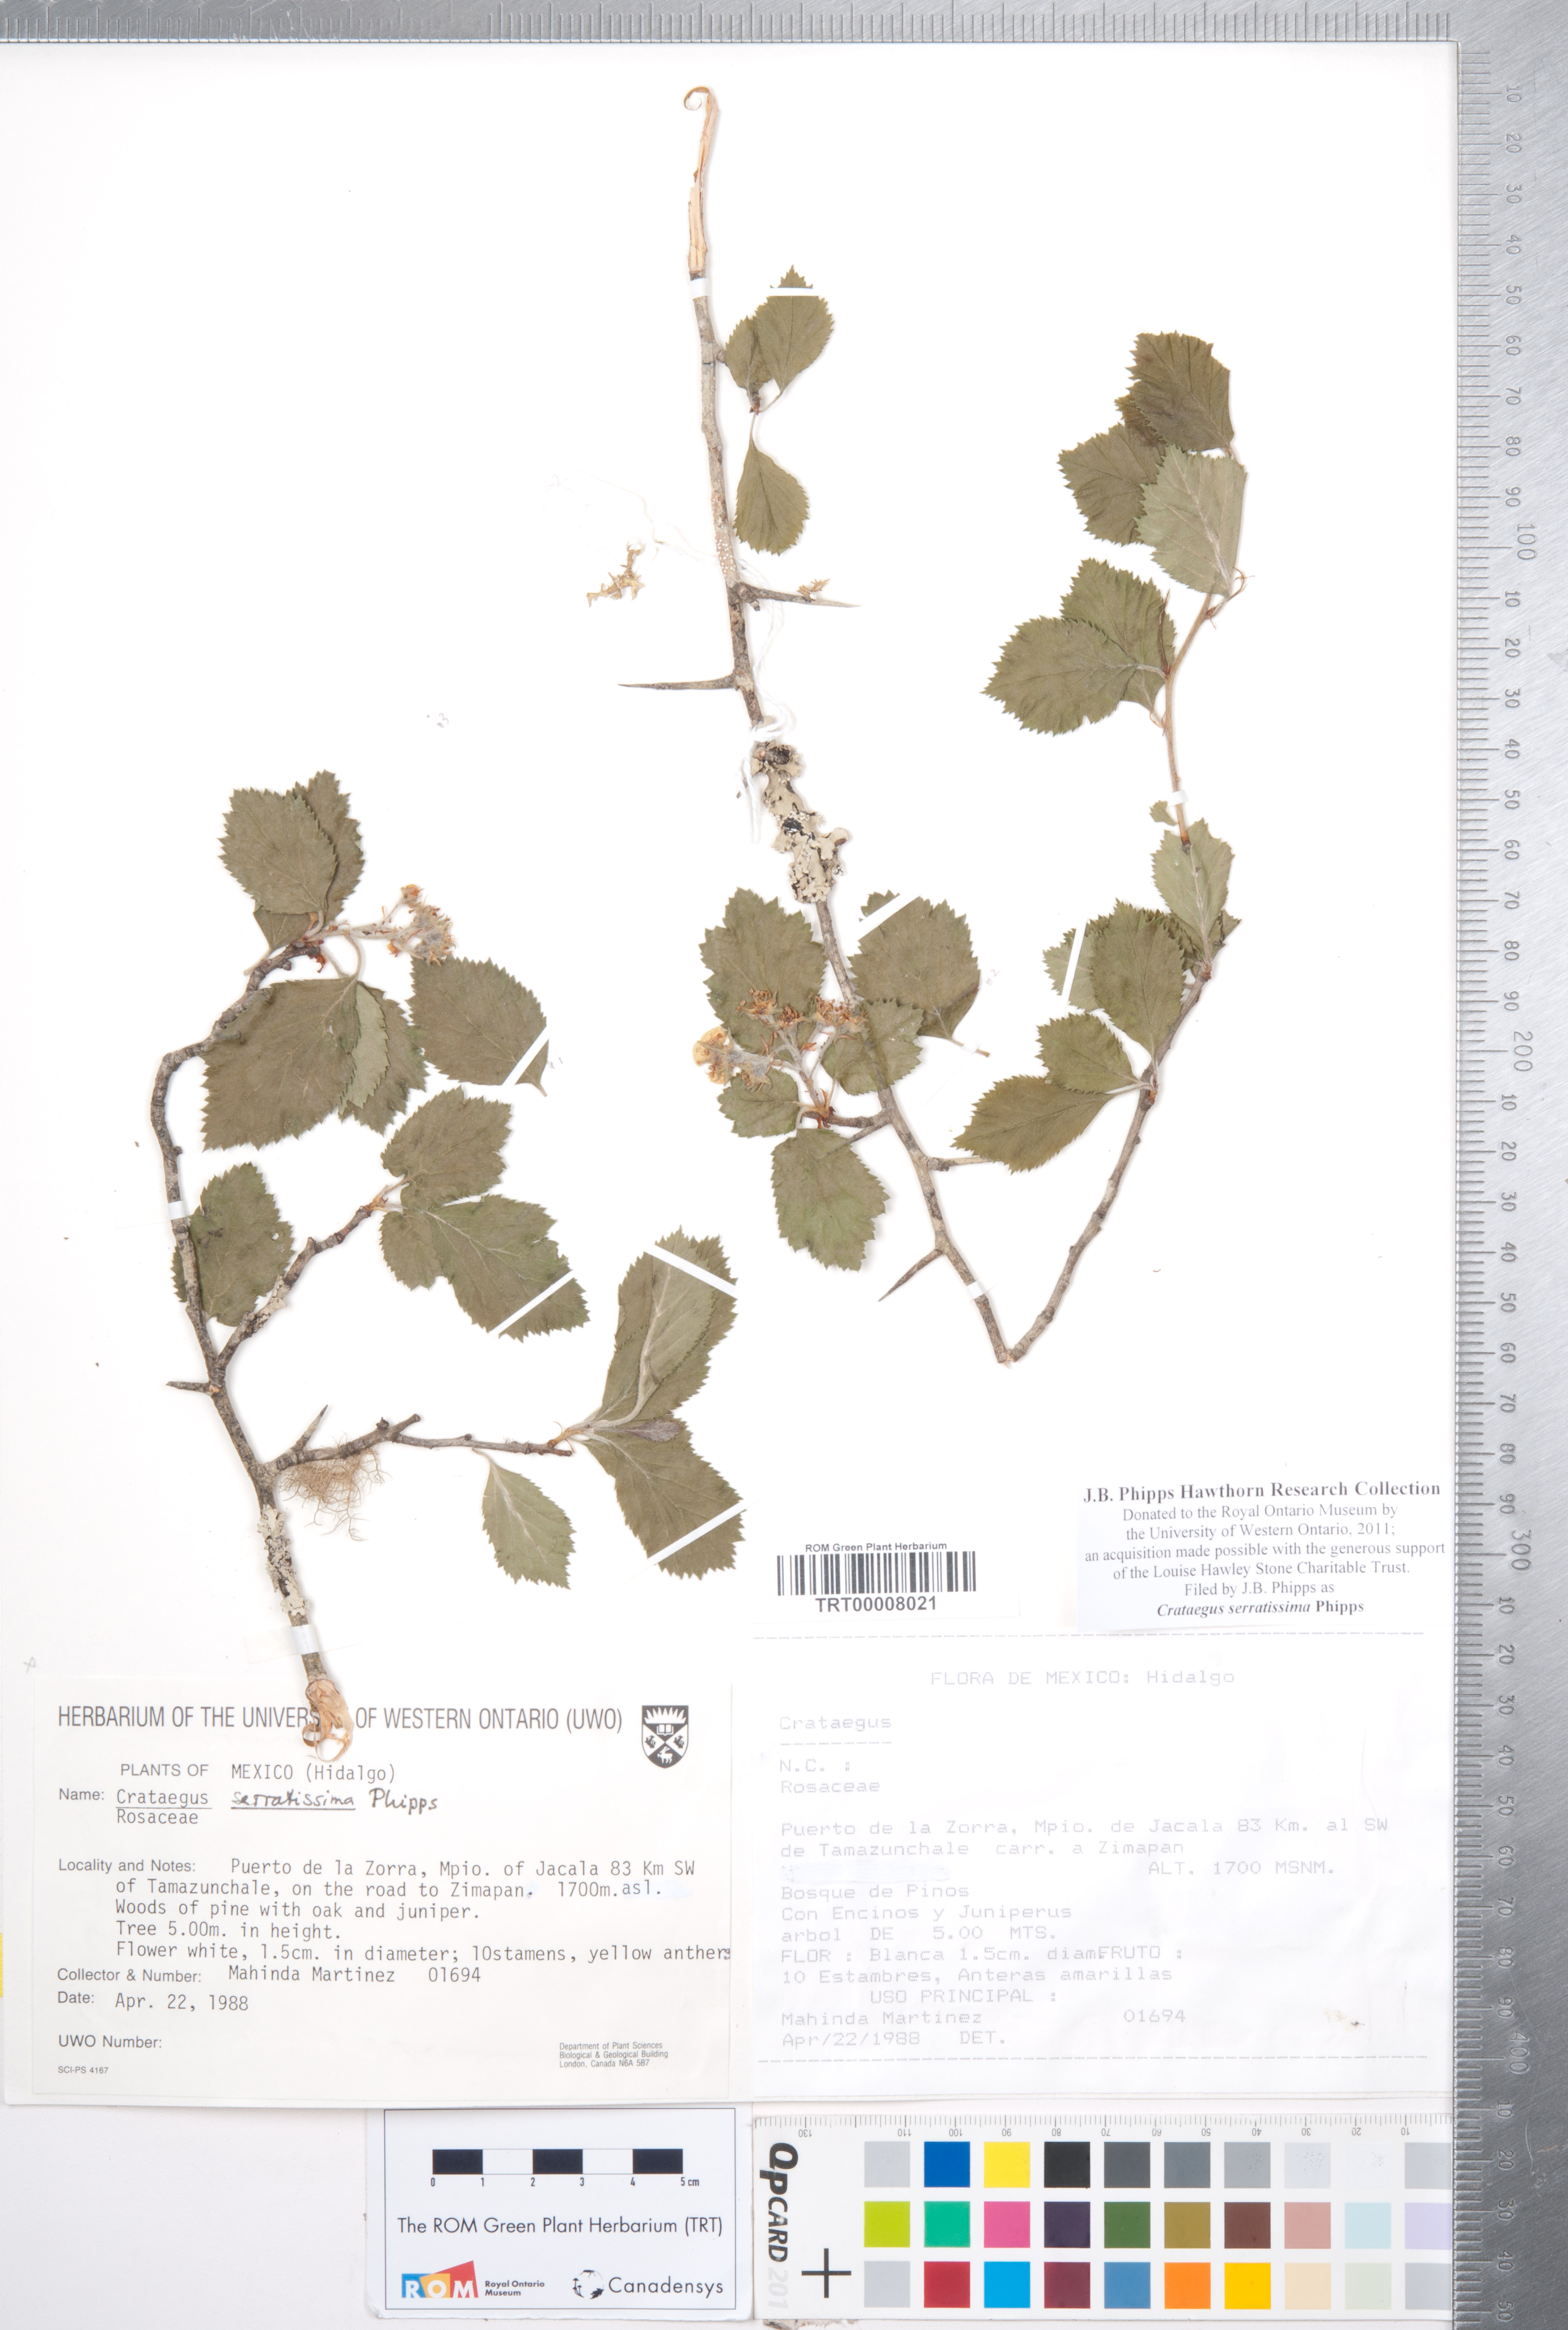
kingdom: Plantae
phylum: Tracheophyta
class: Magnoliopsida
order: Rosales
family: Rosaceae
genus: Crataegus
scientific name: Crataegus serratissima
